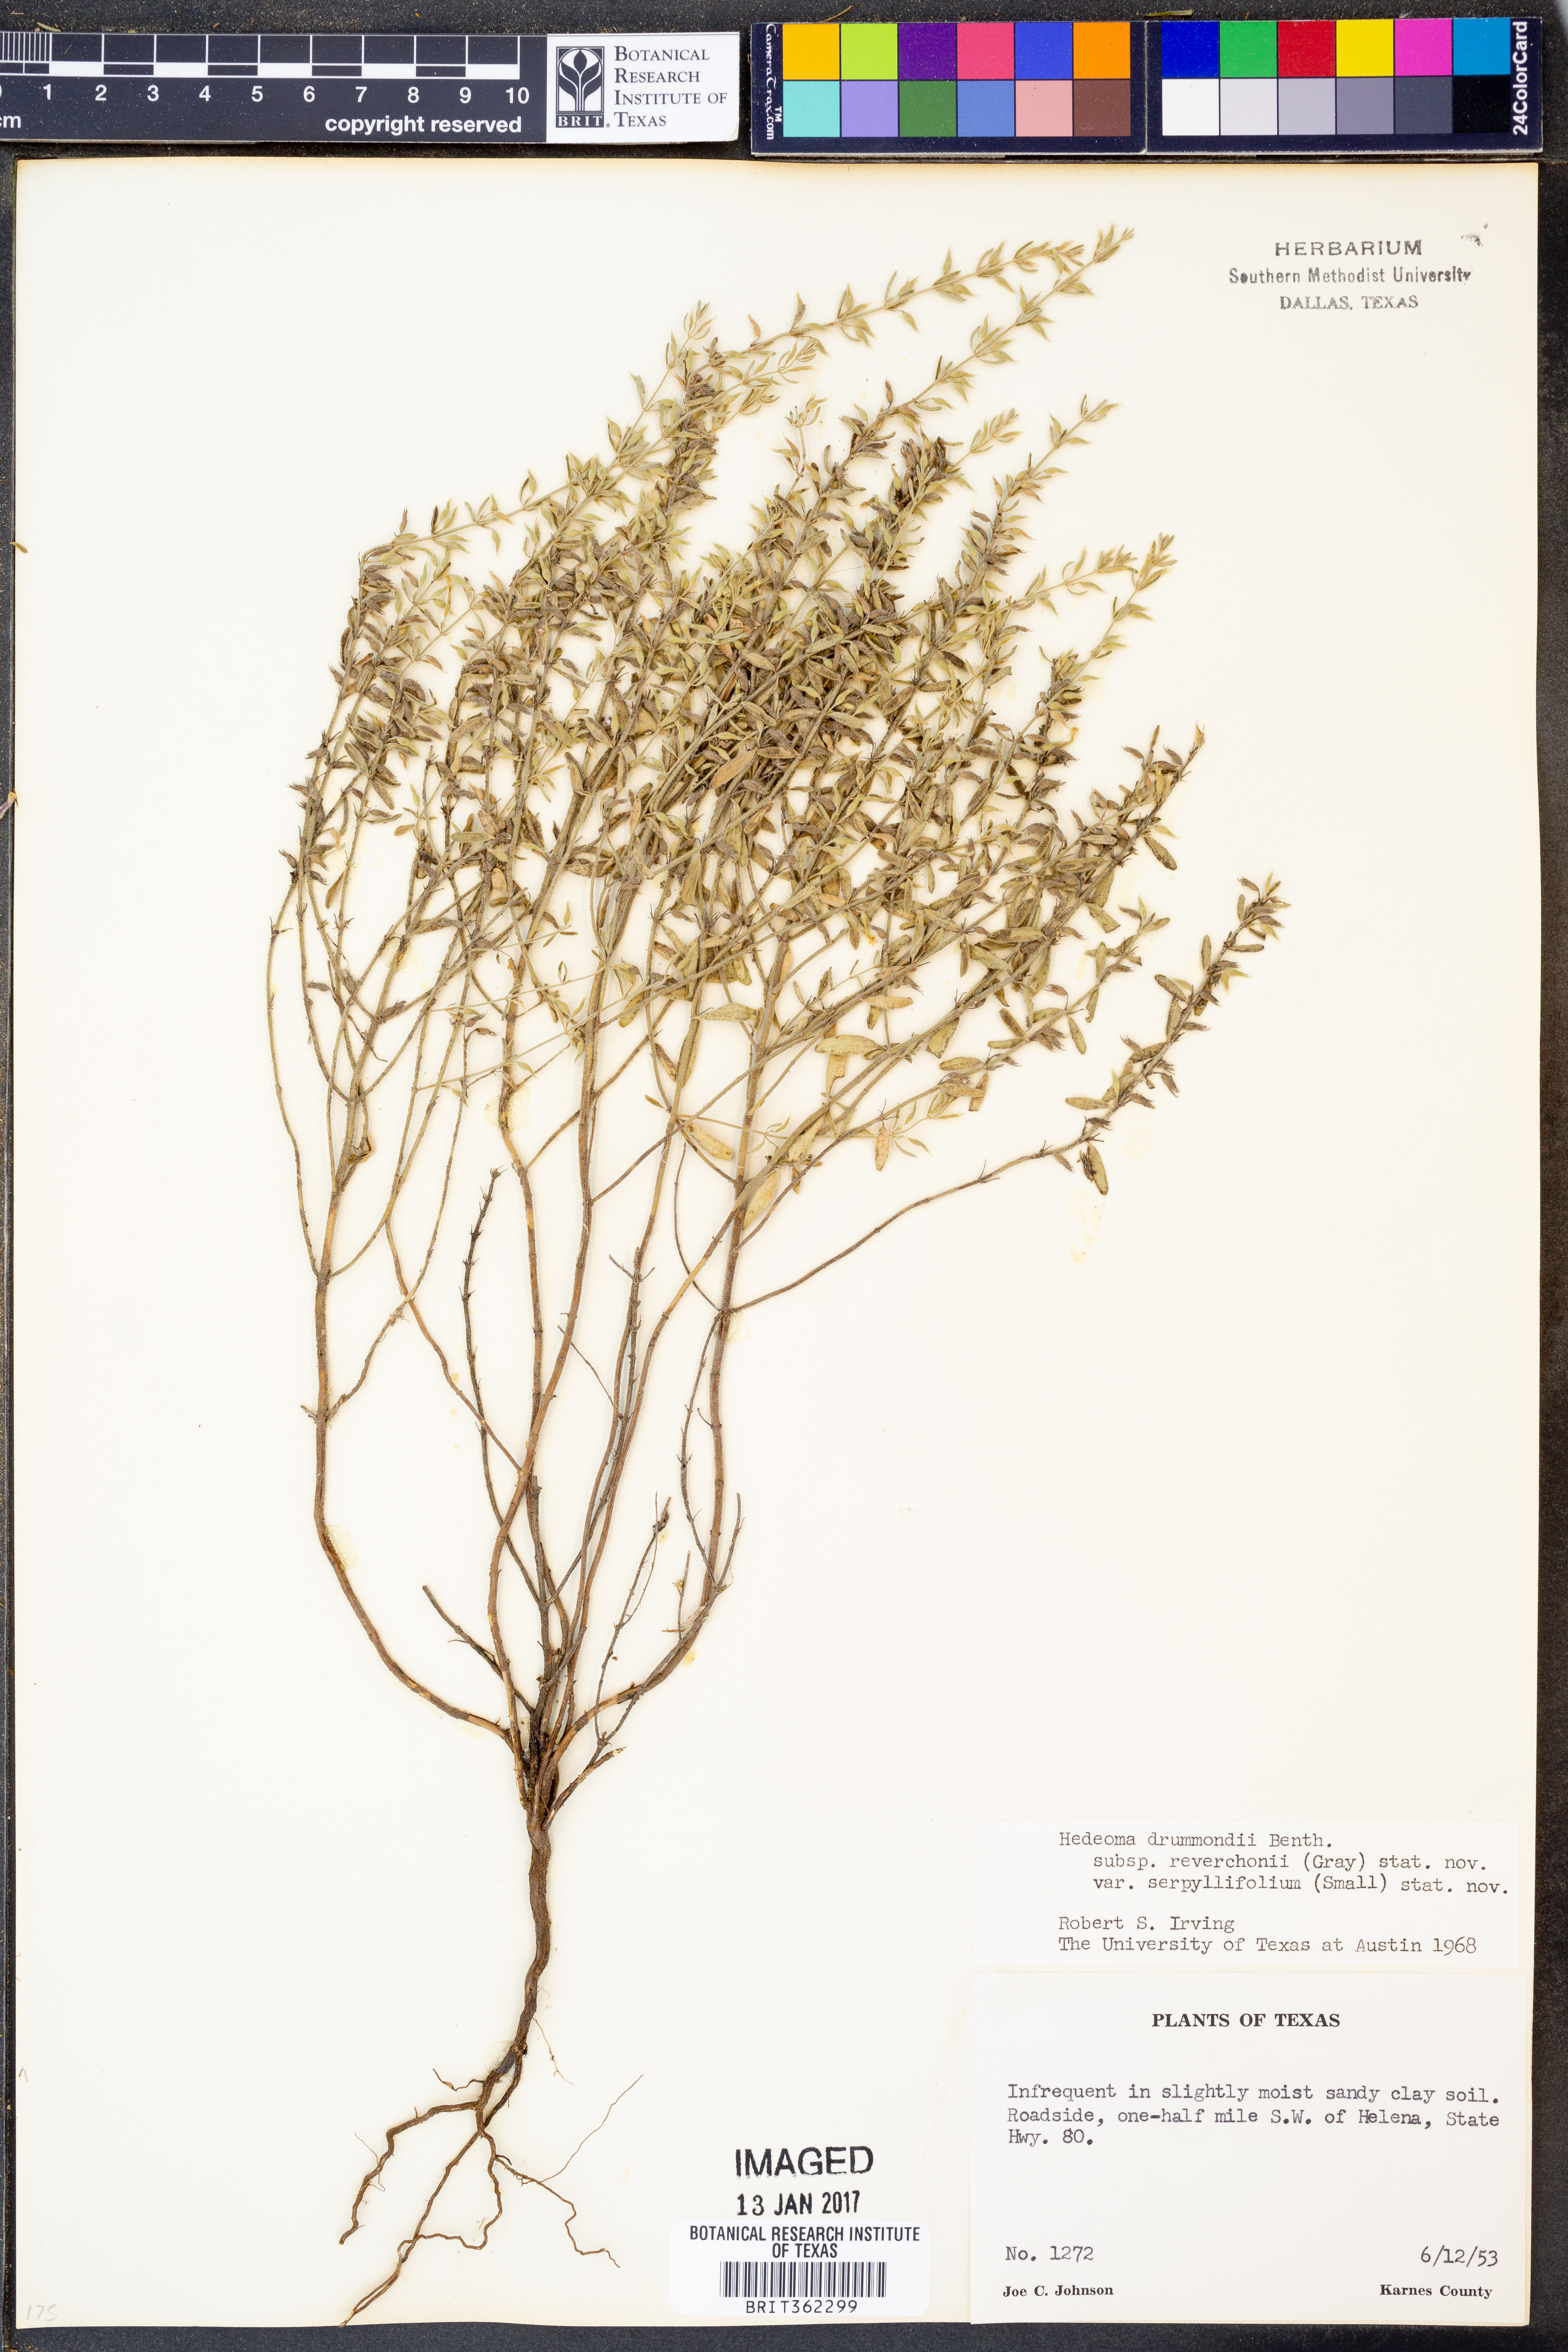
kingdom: Plantae
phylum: Tracheophyta
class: Magnoliopsida
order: Lamiales
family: Lamiaceae
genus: Hedeoma
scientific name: Hedeoma reverchonii
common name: Reverchon's false penny-royal
